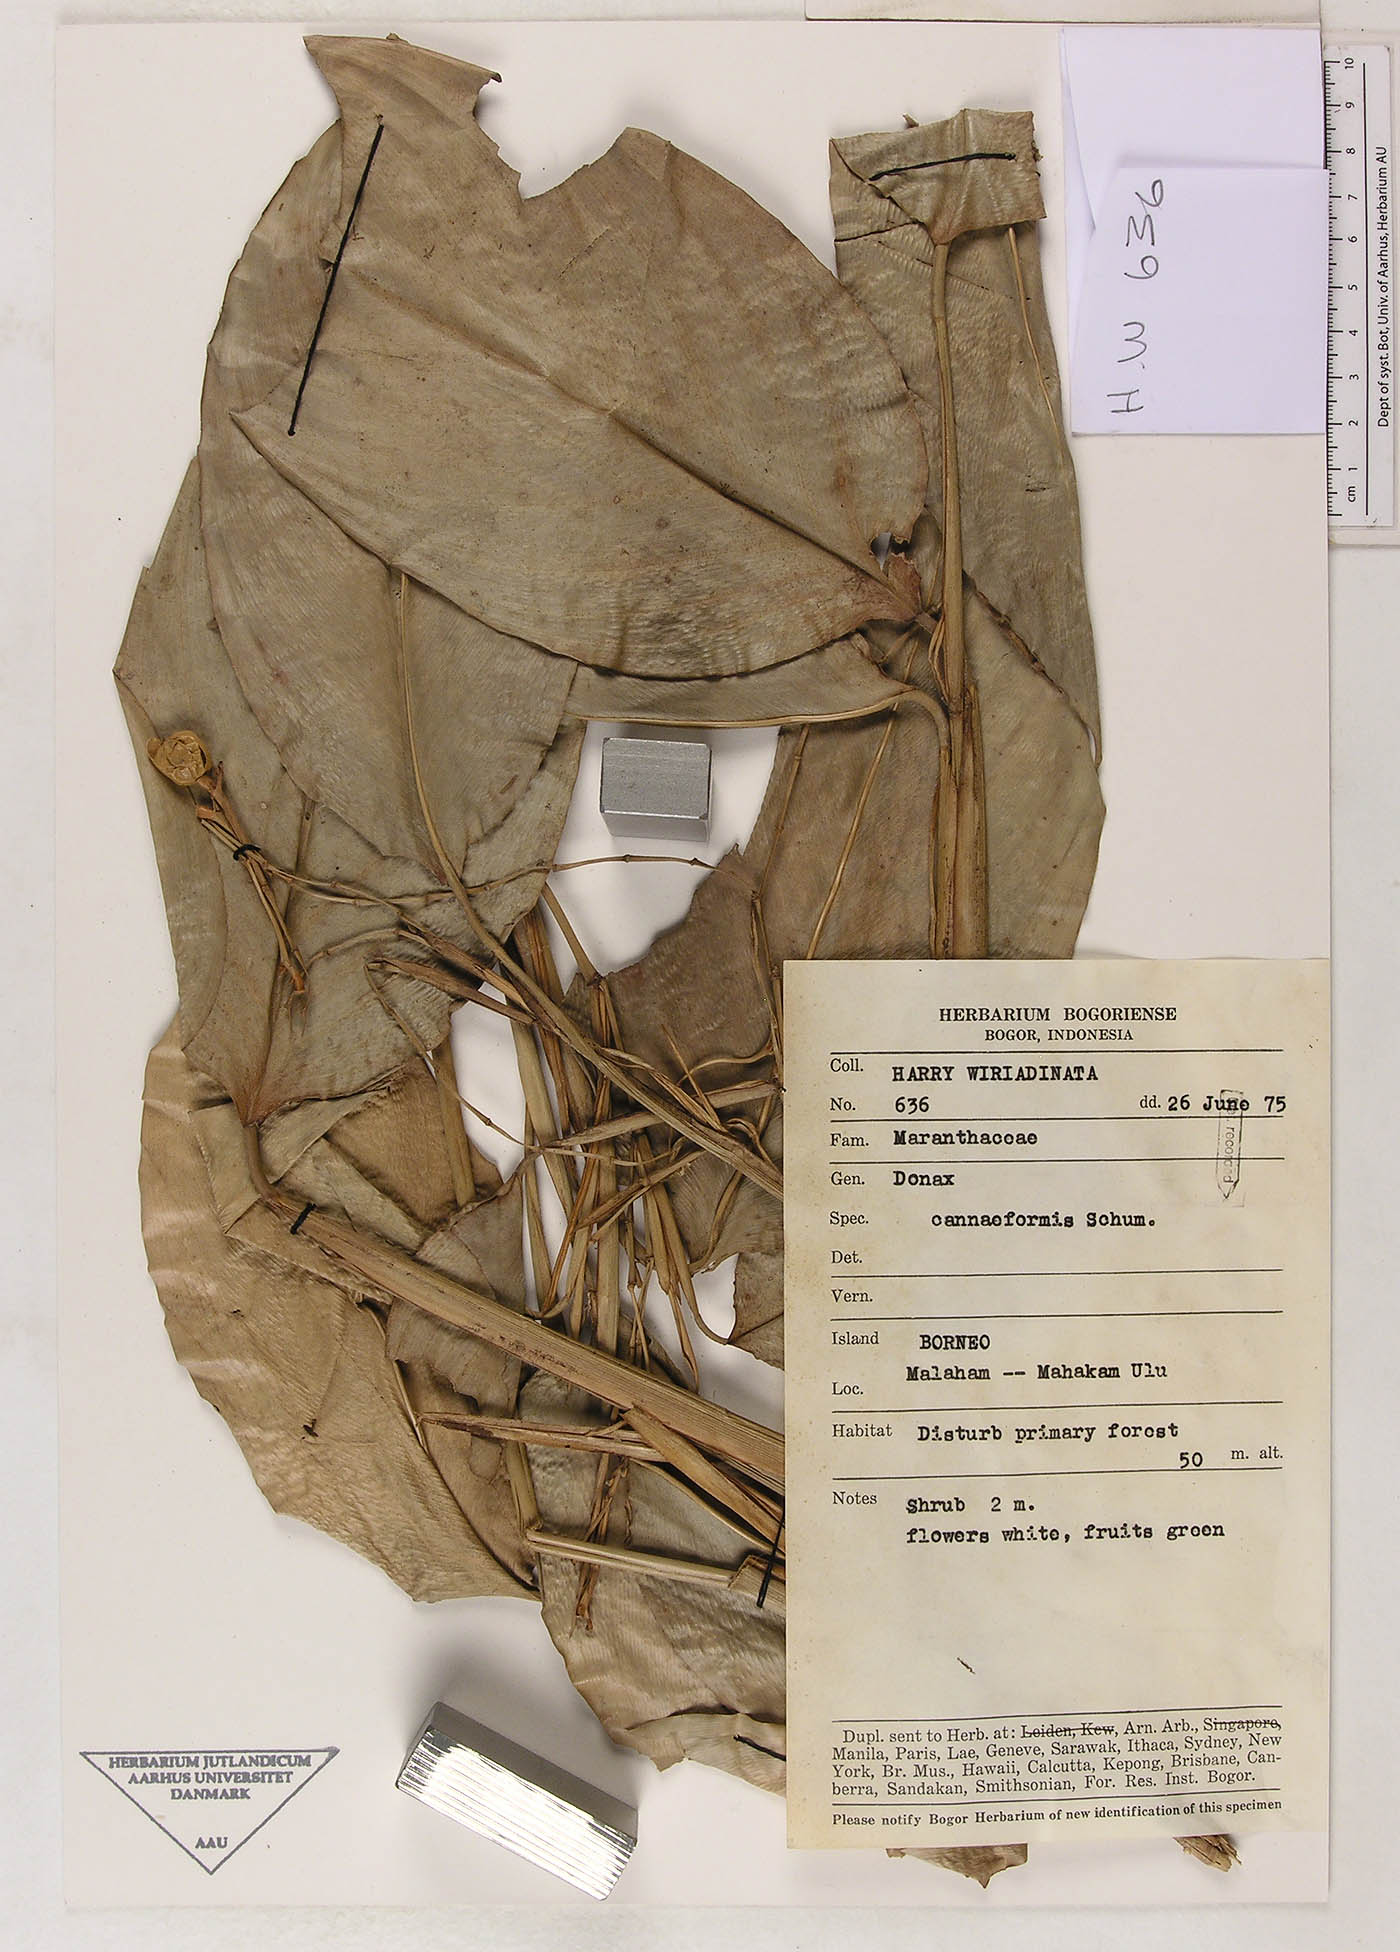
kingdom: Plantae
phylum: Tracheophyta
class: Liliopsida
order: Zingiberales
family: Marantaceae
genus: Donax
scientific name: Donax canniformis
